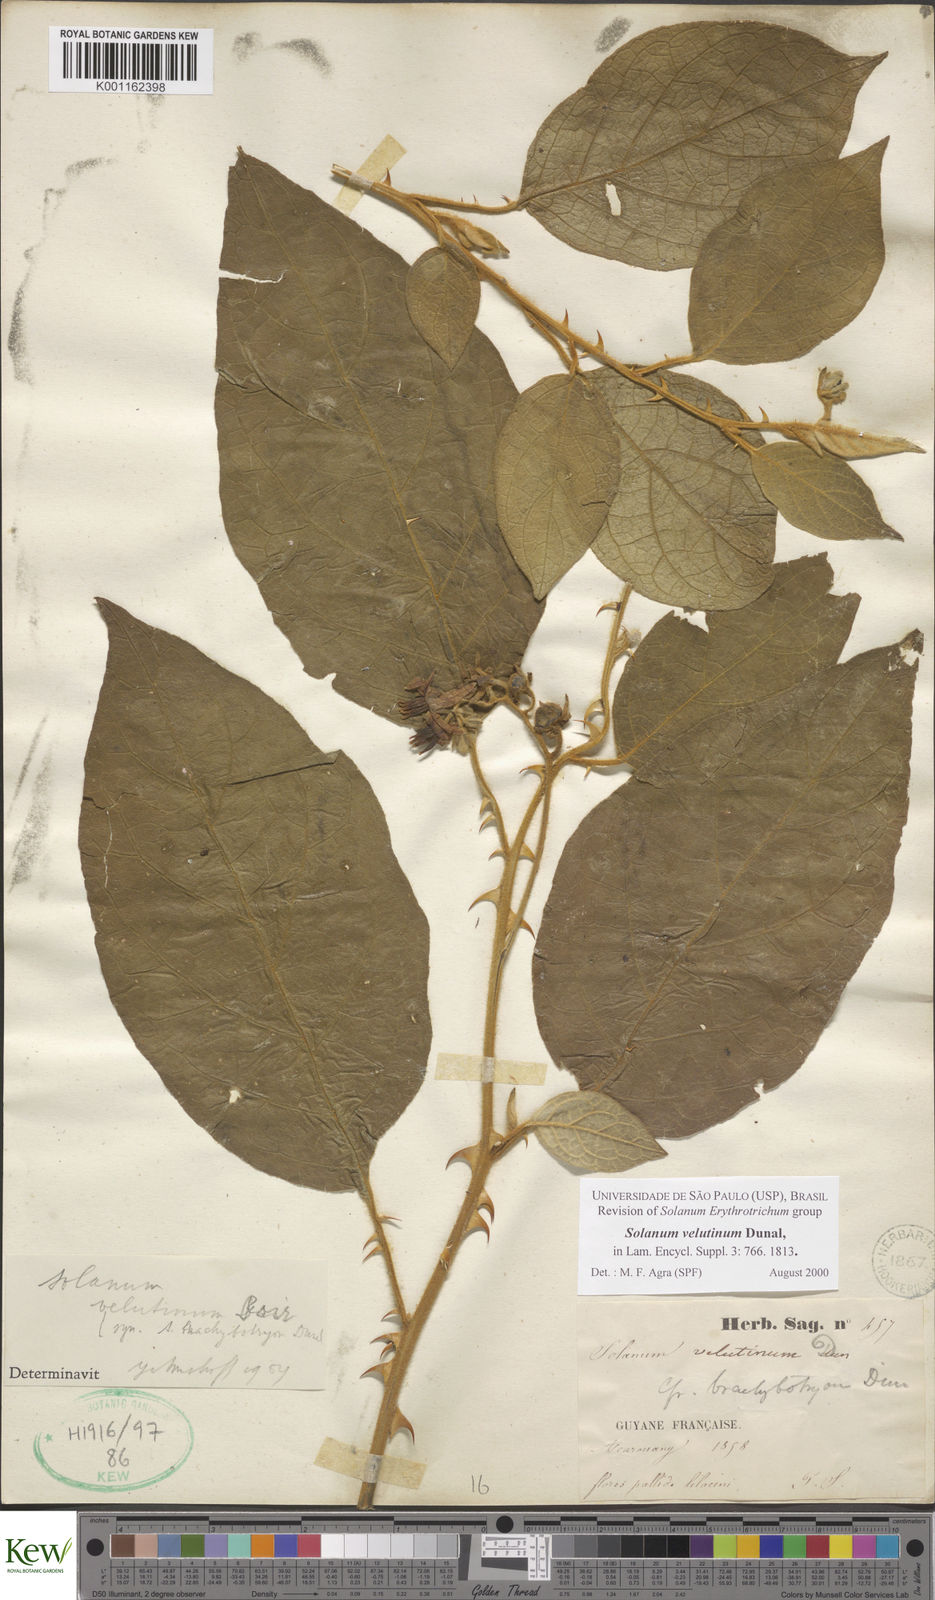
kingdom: Plantae
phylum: Tracheophyta
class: Magnoliopsida
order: Solanales
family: Solanaceae
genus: Solanum
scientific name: Solanum velutinum
